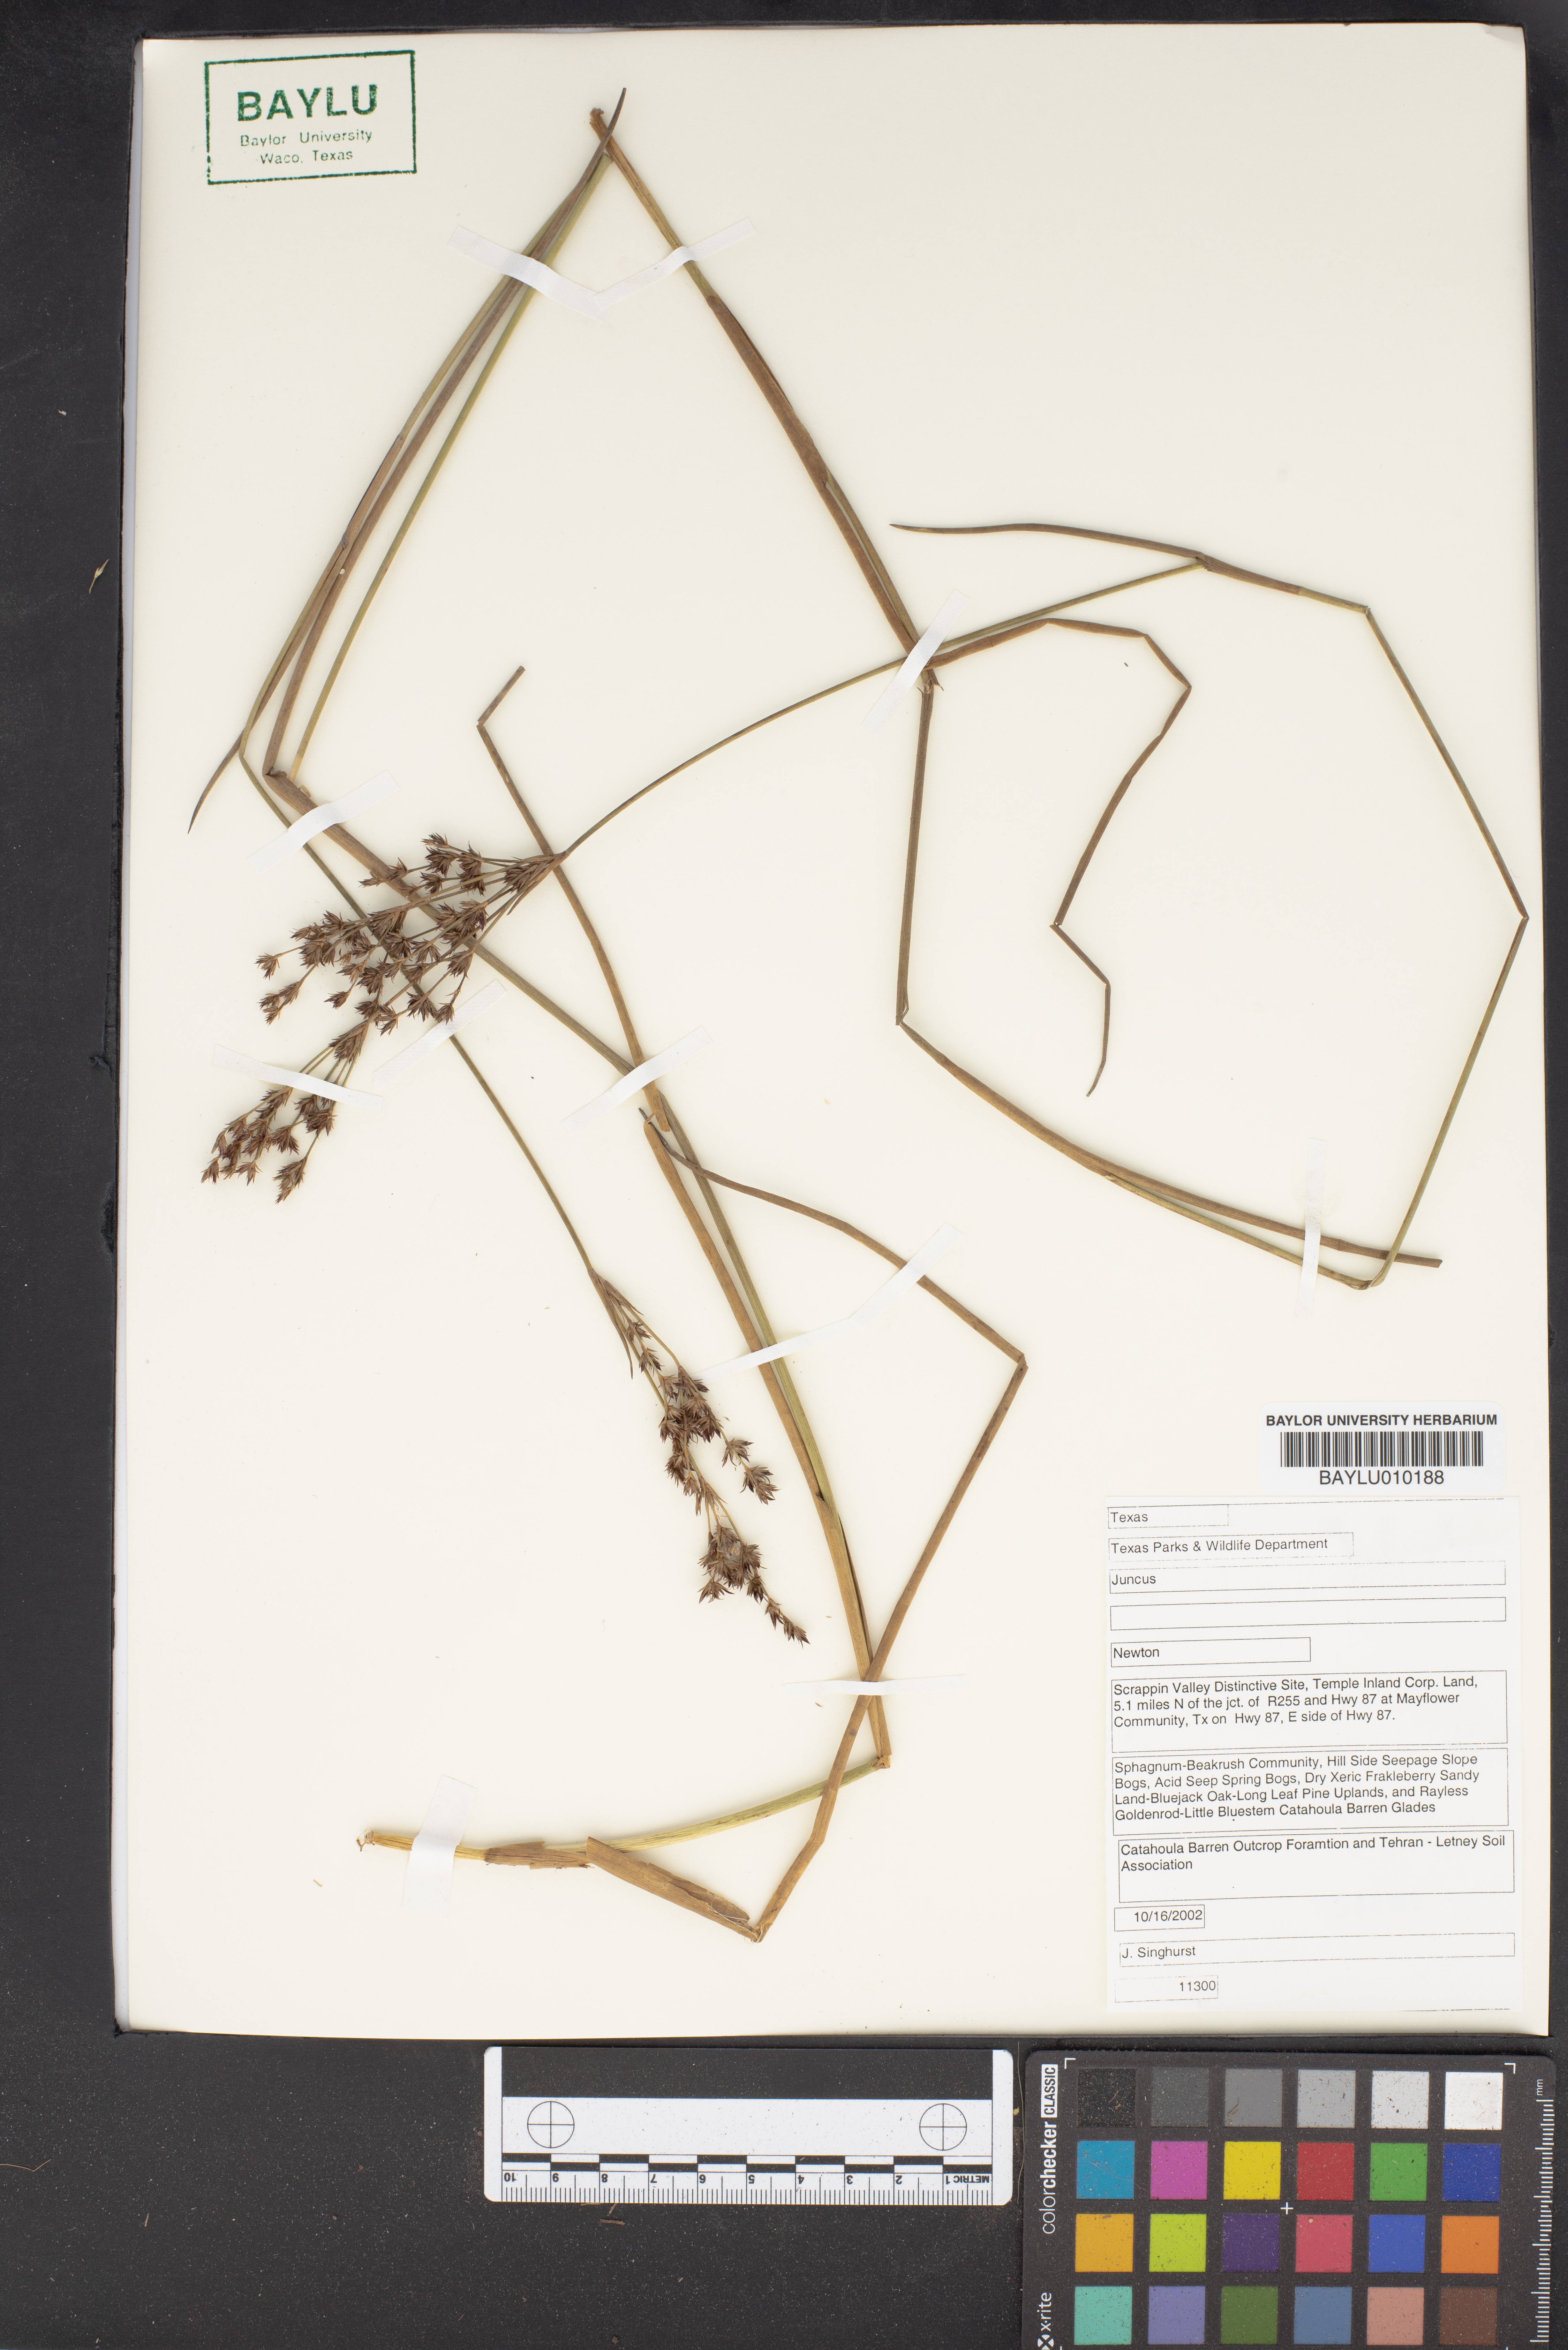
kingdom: Plantae
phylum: Tracheophyta
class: Liliopsida
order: Poales
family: Juncaceae
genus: Juncus
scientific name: Juncus
